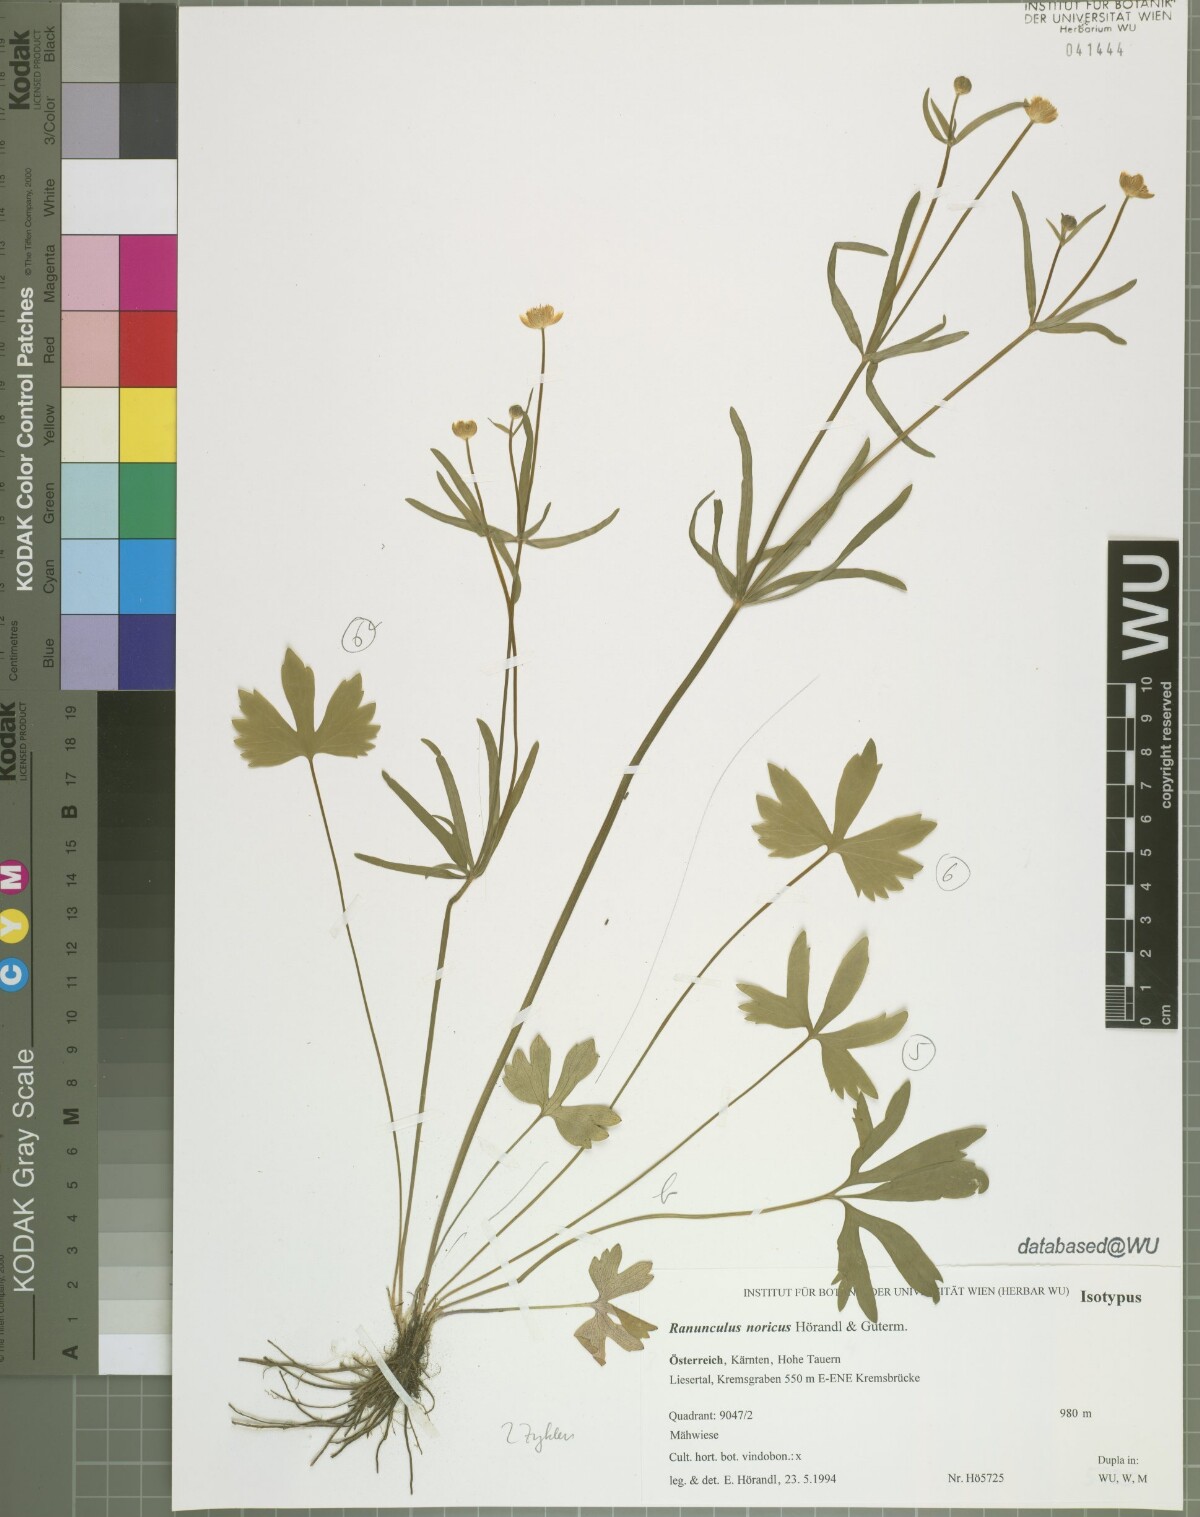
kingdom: Plantae
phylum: Tracheophyta
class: Magnoliopsida
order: Ranunculales
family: Ranunculaceae
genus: Ranunculus
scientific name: Ranunculus noricus
